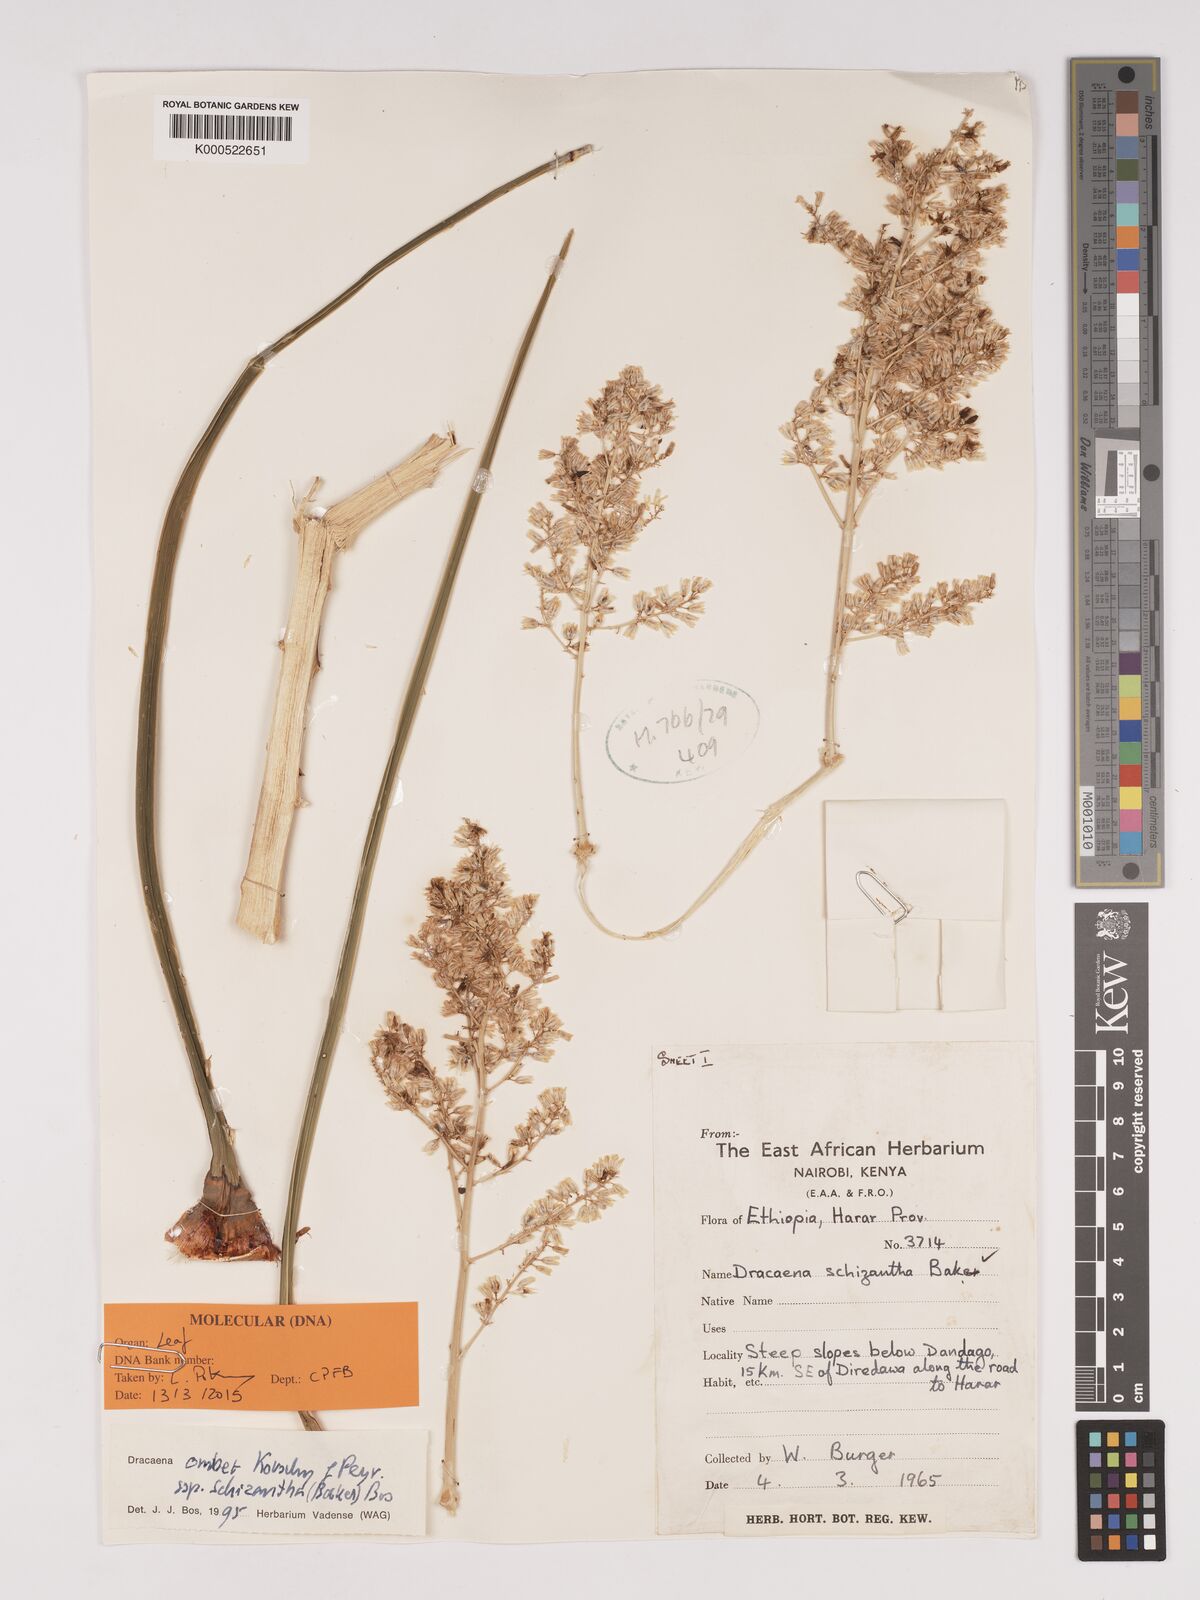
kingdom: Plantae
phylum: Tracheophyta
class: Liliopsida
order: Asparagales
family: Asparagaceae
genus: Dracaena
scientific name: Dracaena ombet
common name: Gabal elba dragon tree
